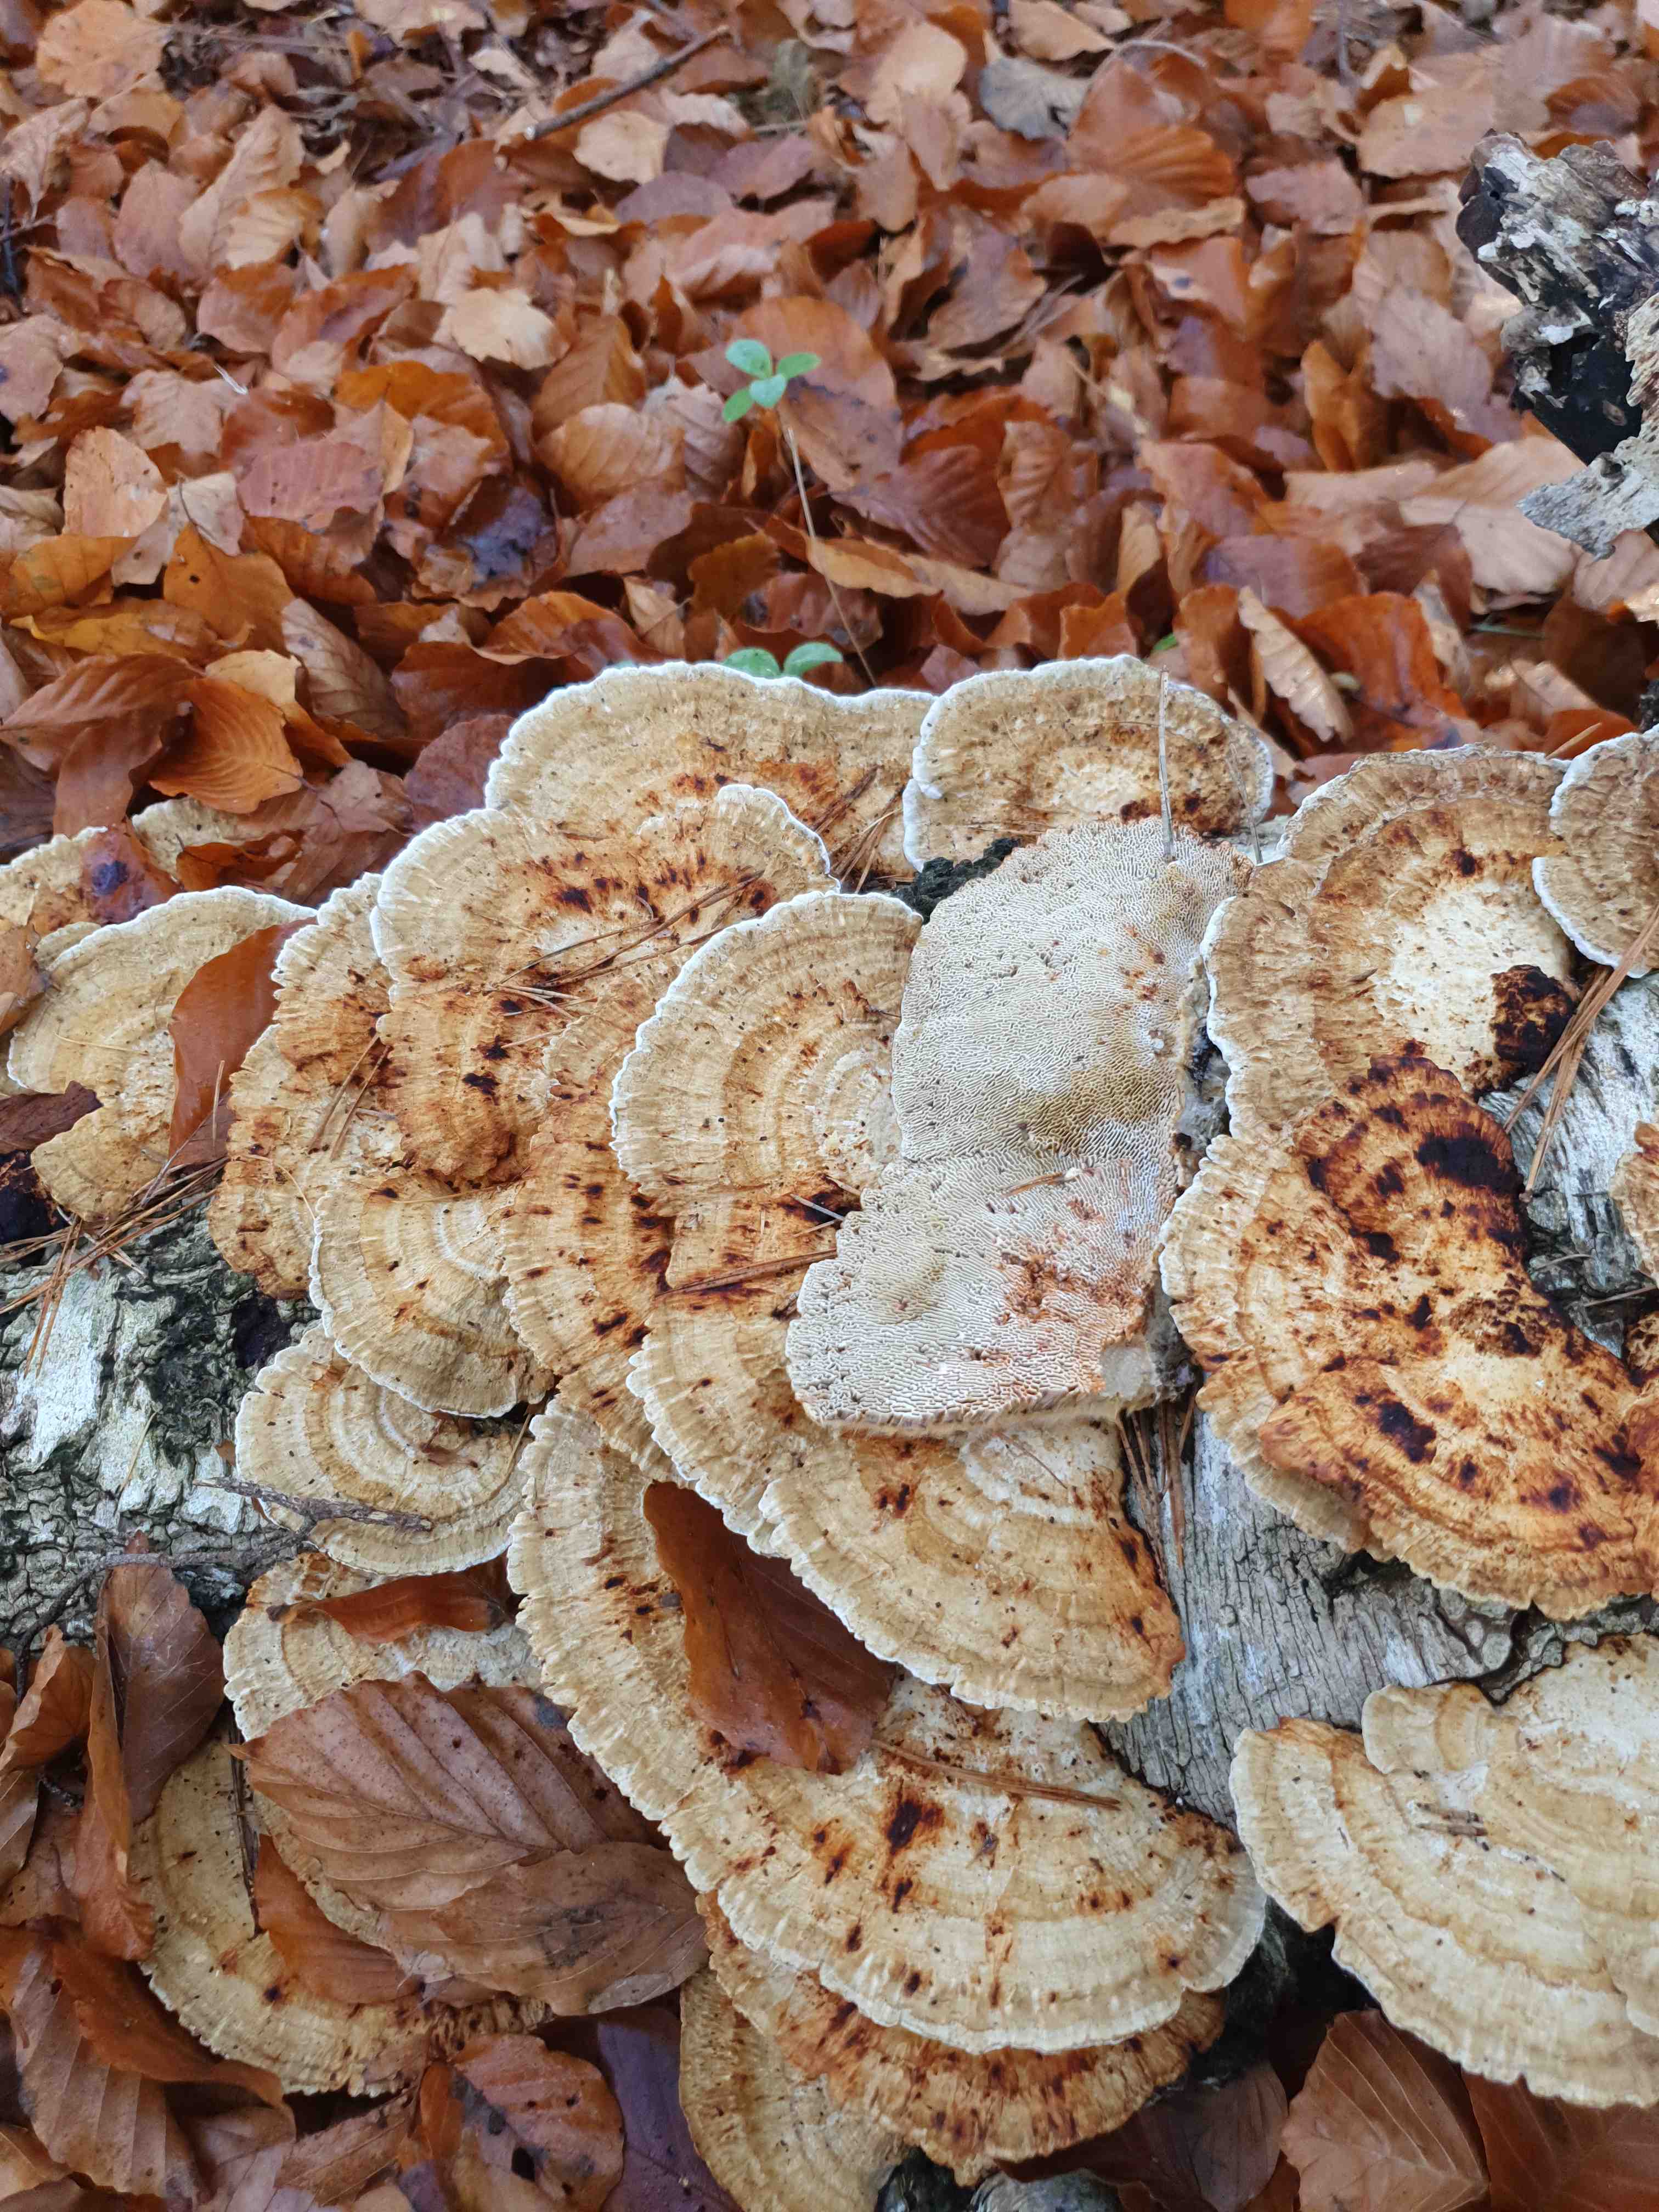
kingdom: Fungi
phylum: Basidiomycota
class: Agaricomycetes
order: Polyporales
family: Polyporaceae
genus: Daedaleopsis
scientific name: Daedaleopsis confragosa
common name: rødmende læderporesvamp
